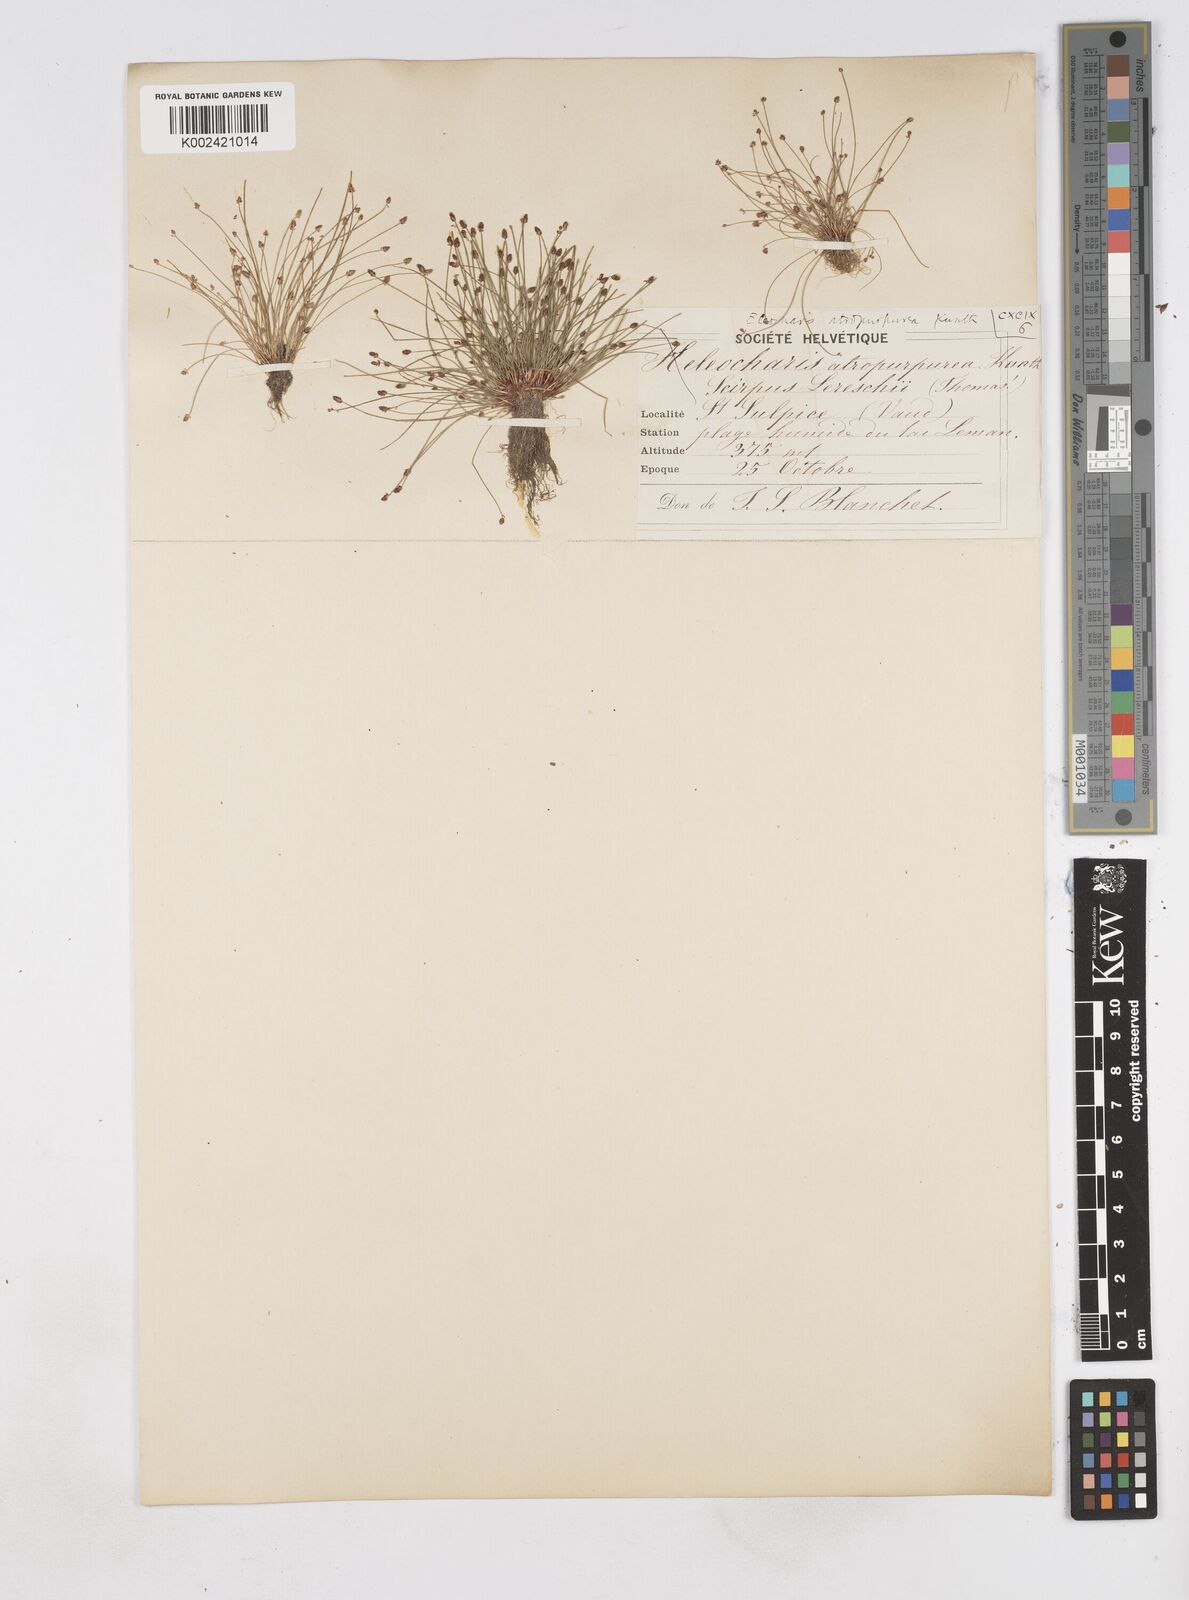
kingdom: Plantae
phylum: Tracheophyta
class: Liliopsida
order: Poales
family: Cyperaceae
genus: Eleocharis
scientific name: Eleocharis atropurpurea
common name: Purple spikerush
